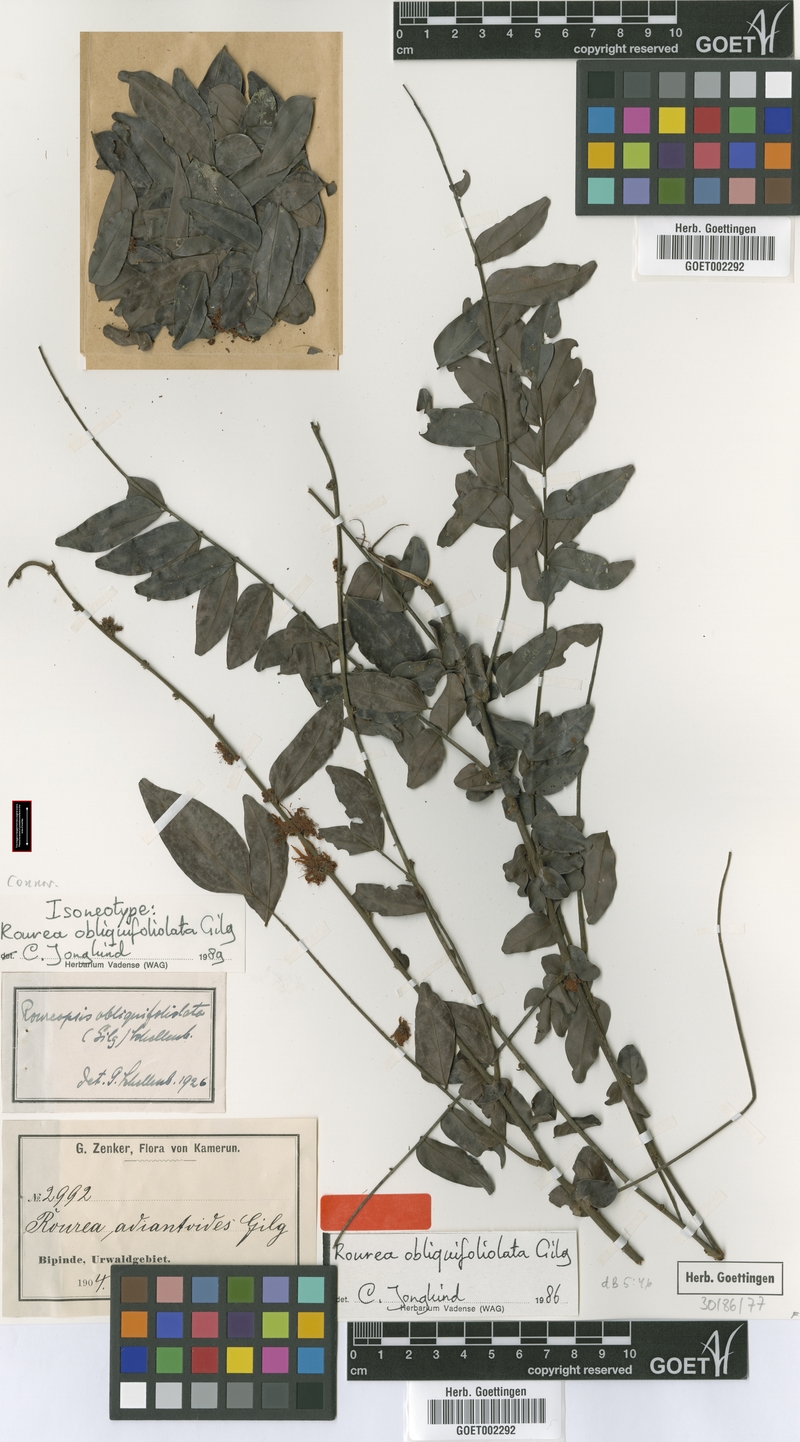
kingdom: Plantae
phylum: Tracheophyta
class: Magnoliopsida
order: Oxalidales
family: Connaraceae
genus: Rourea
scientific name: Rourea obliquifoliolata
